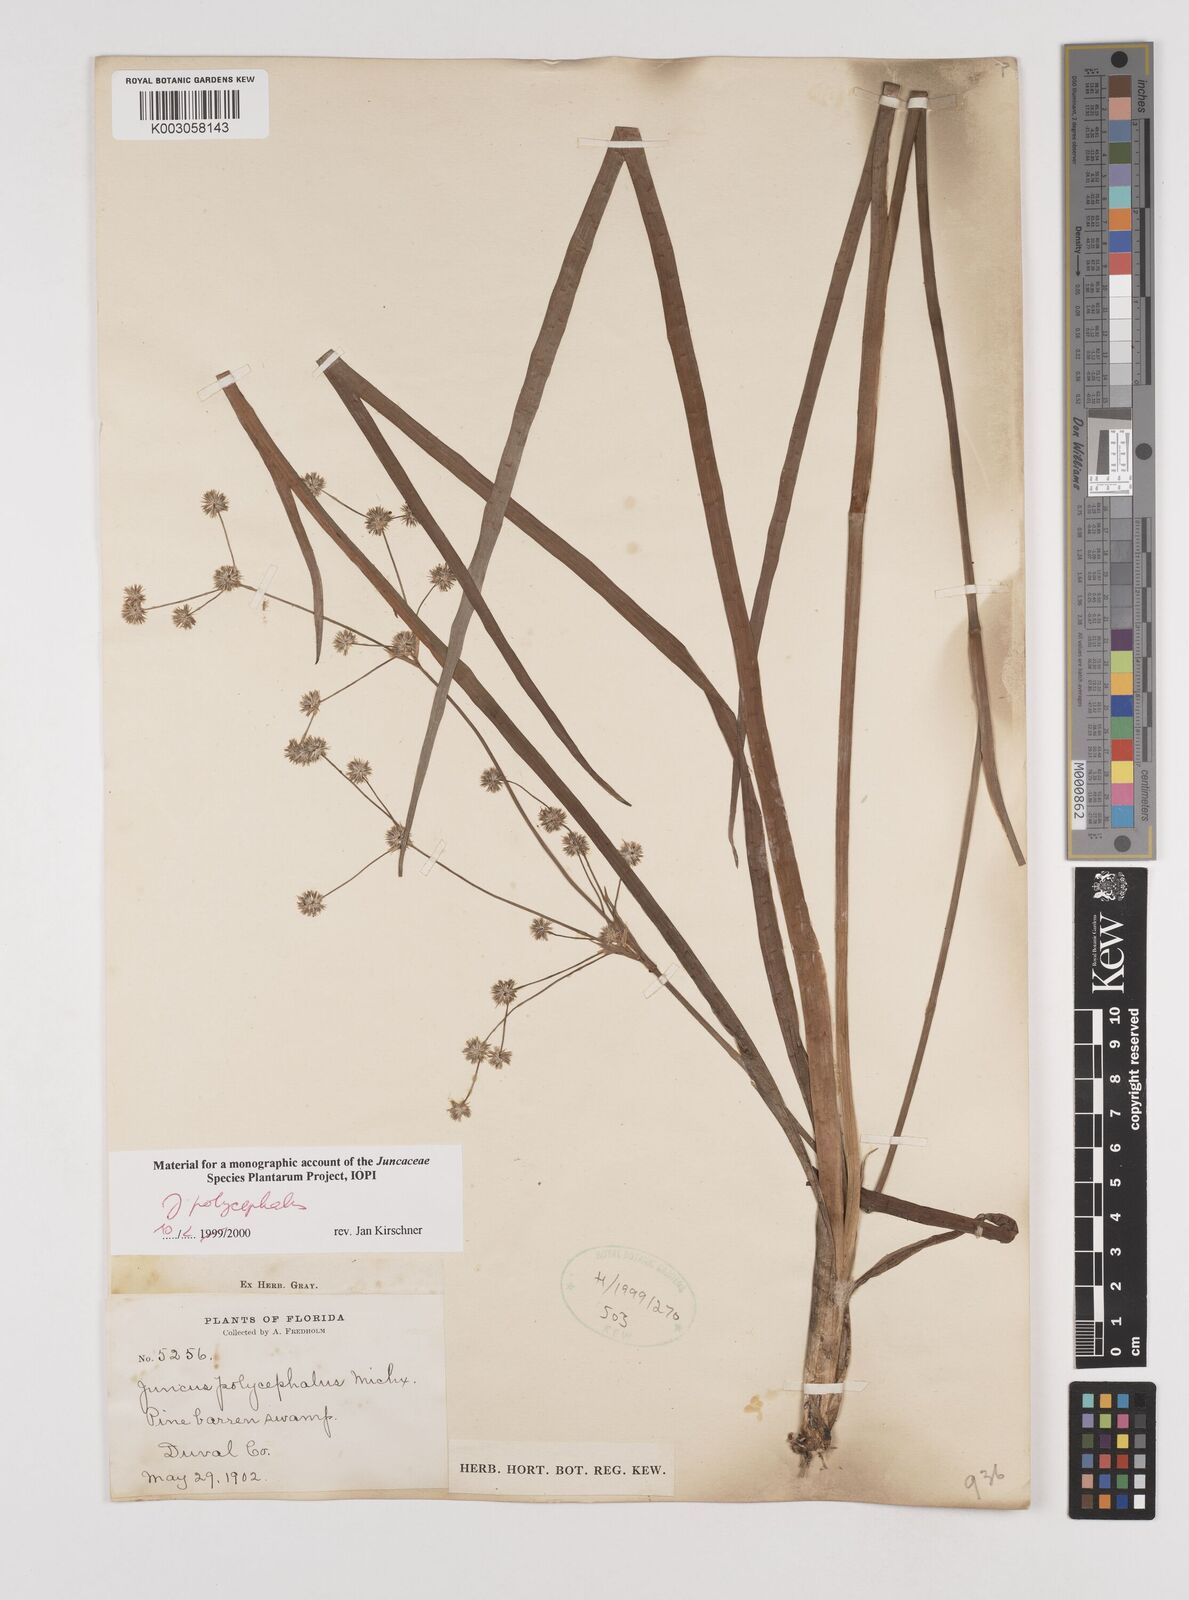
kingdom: Plantae
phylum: Tracheophyta
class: Liliopsida
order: Poales
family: Juncaceae
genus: Juncus
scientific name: Juncus articulatus
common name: Jointed rush
